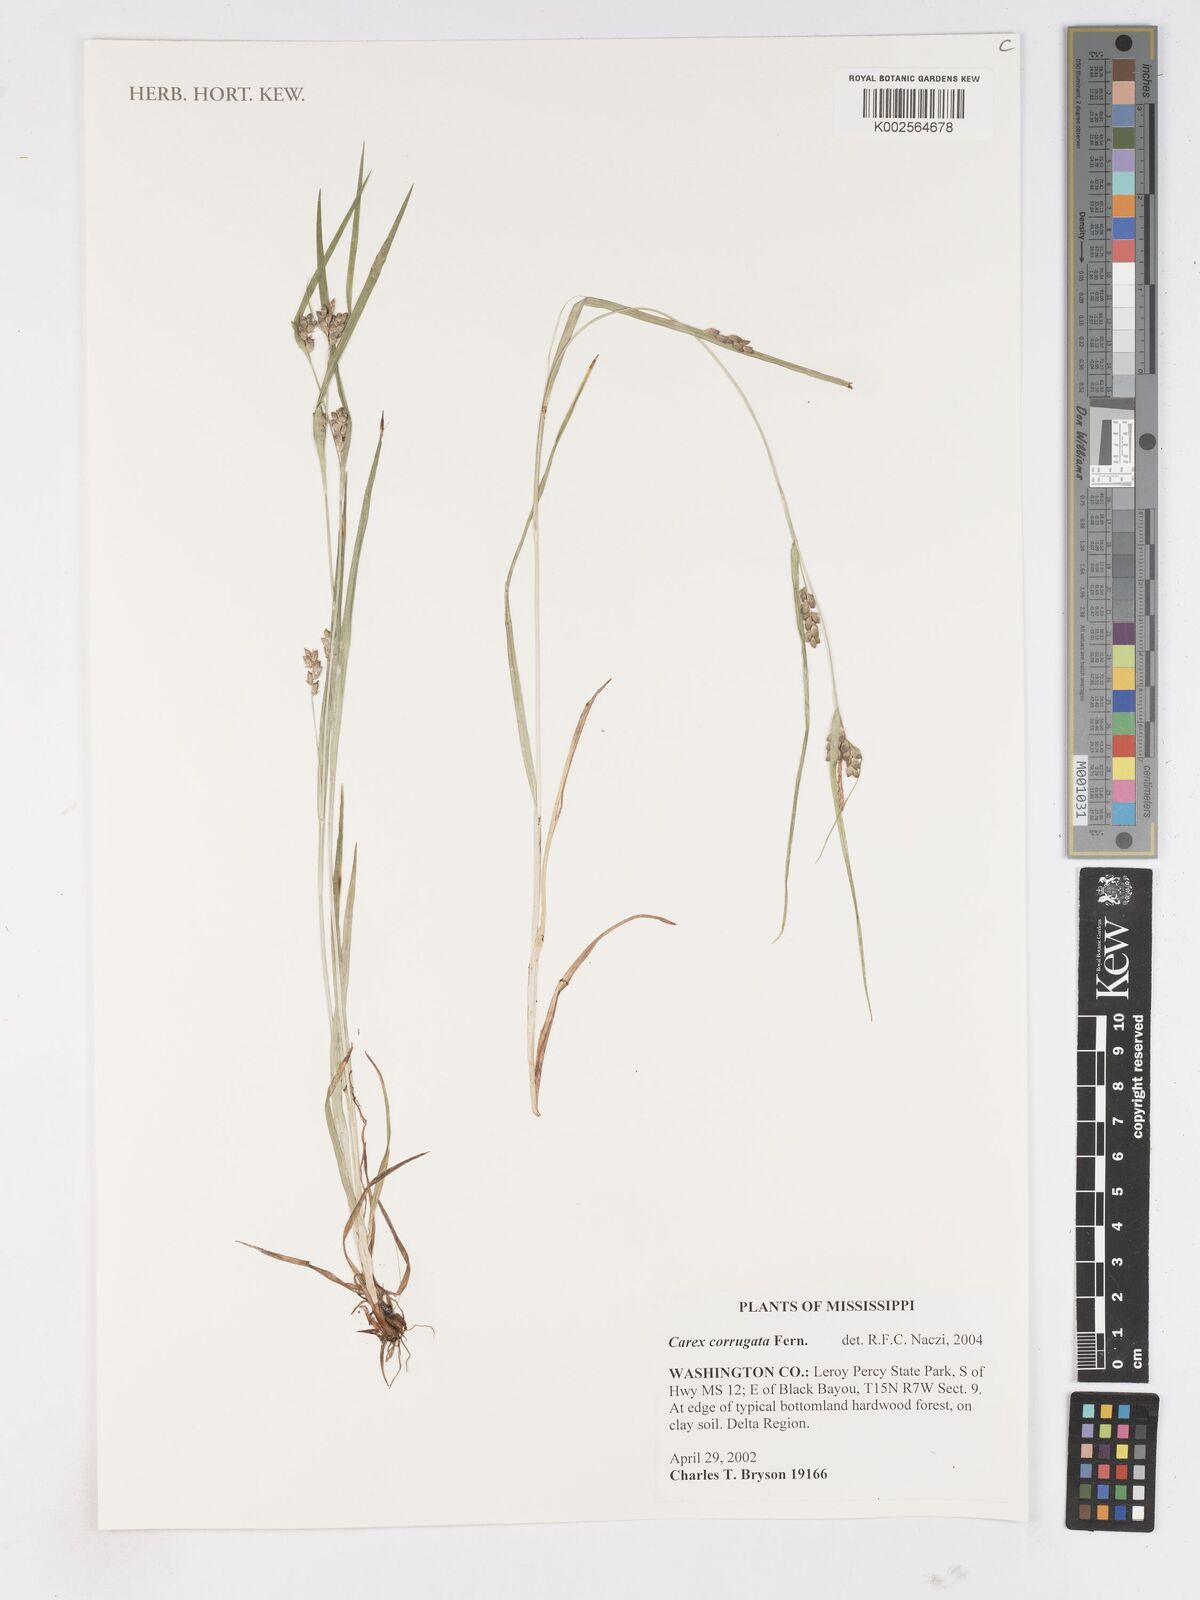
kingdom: Plantae
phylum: Tracheophyta
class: Liliopsida
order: Poales
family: Cyperaceae
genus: Carex
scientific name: Carex corrugata
